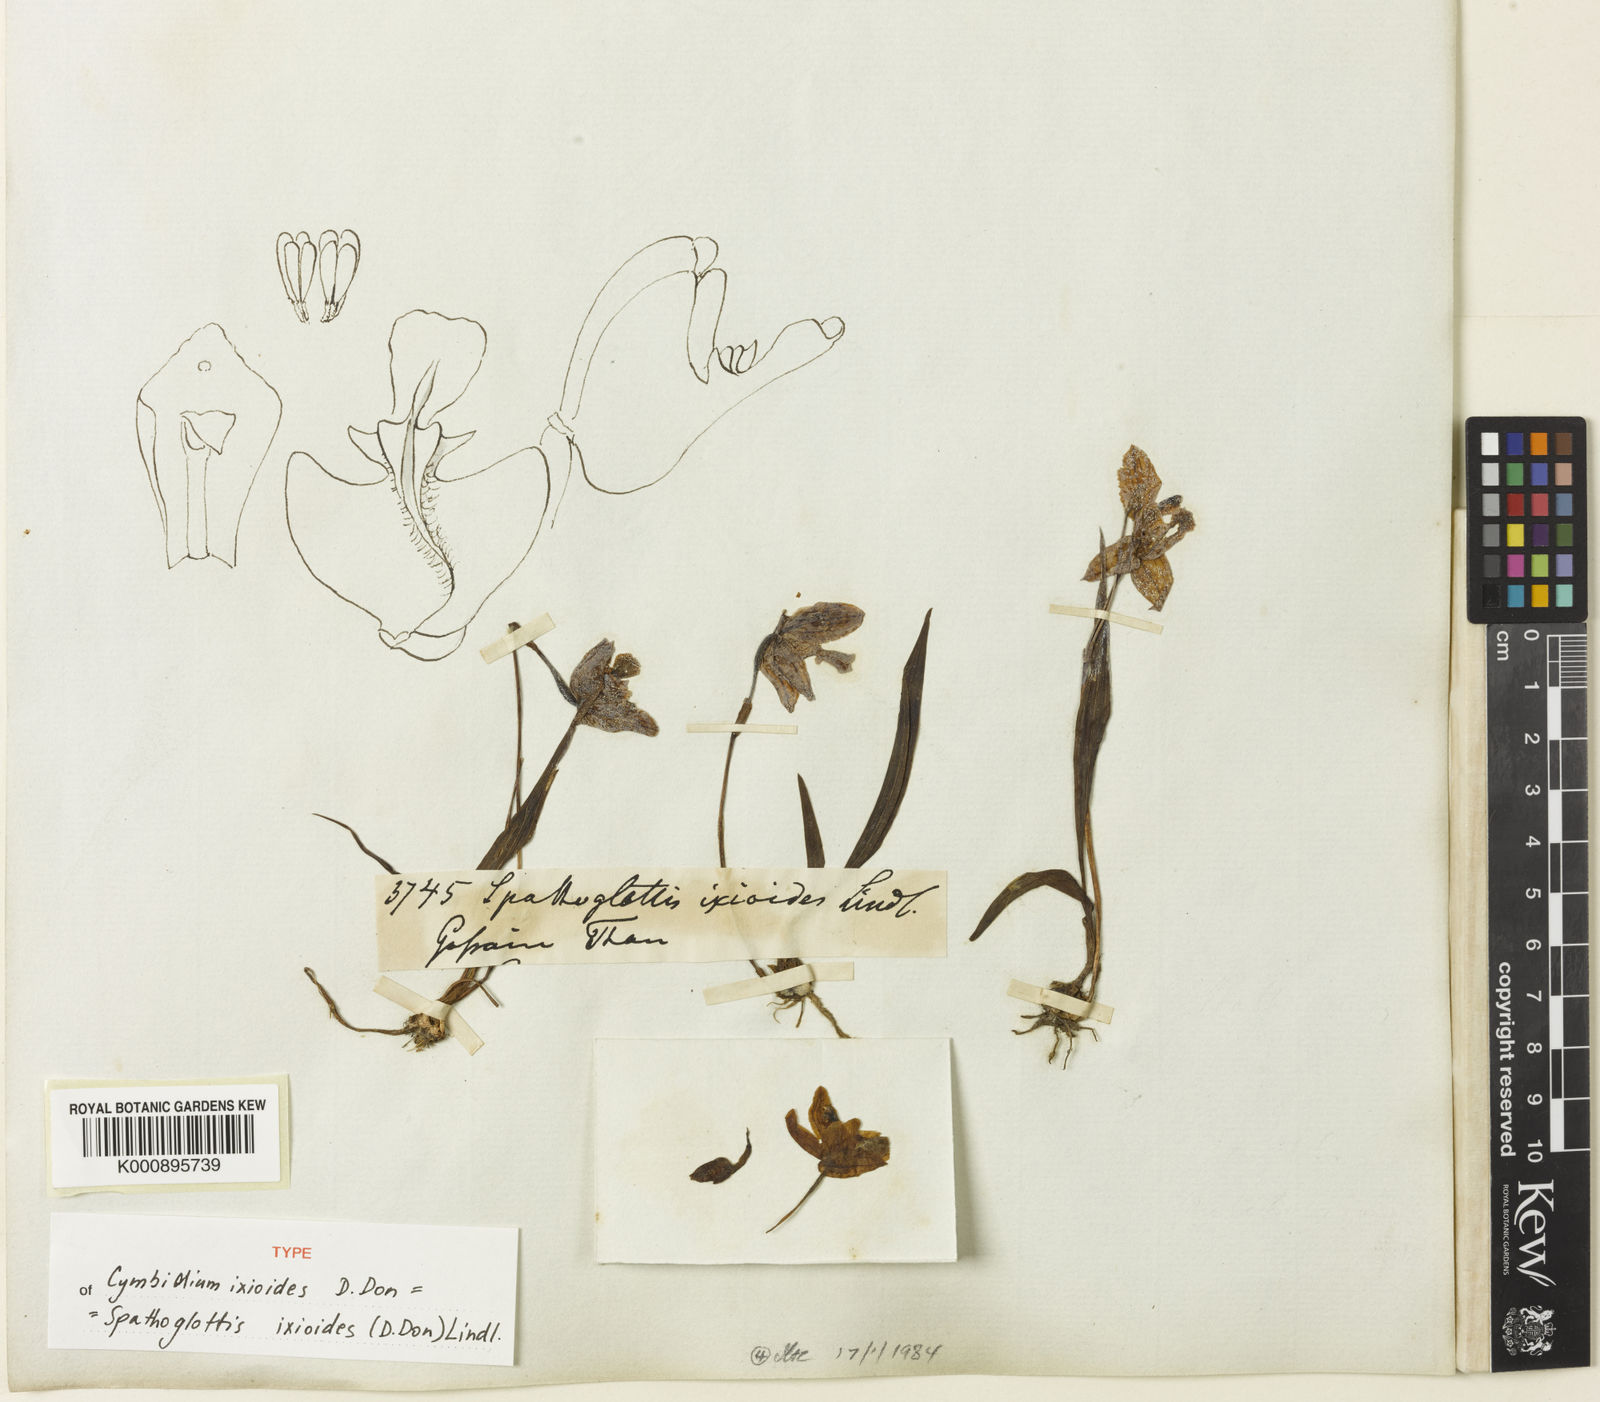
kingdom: Plantae
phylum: Tracheophyta
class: Liliopsida
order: Asparagales
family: Orchidaceae
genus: Spathoglottis
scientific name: Spathoglottis ixioides
